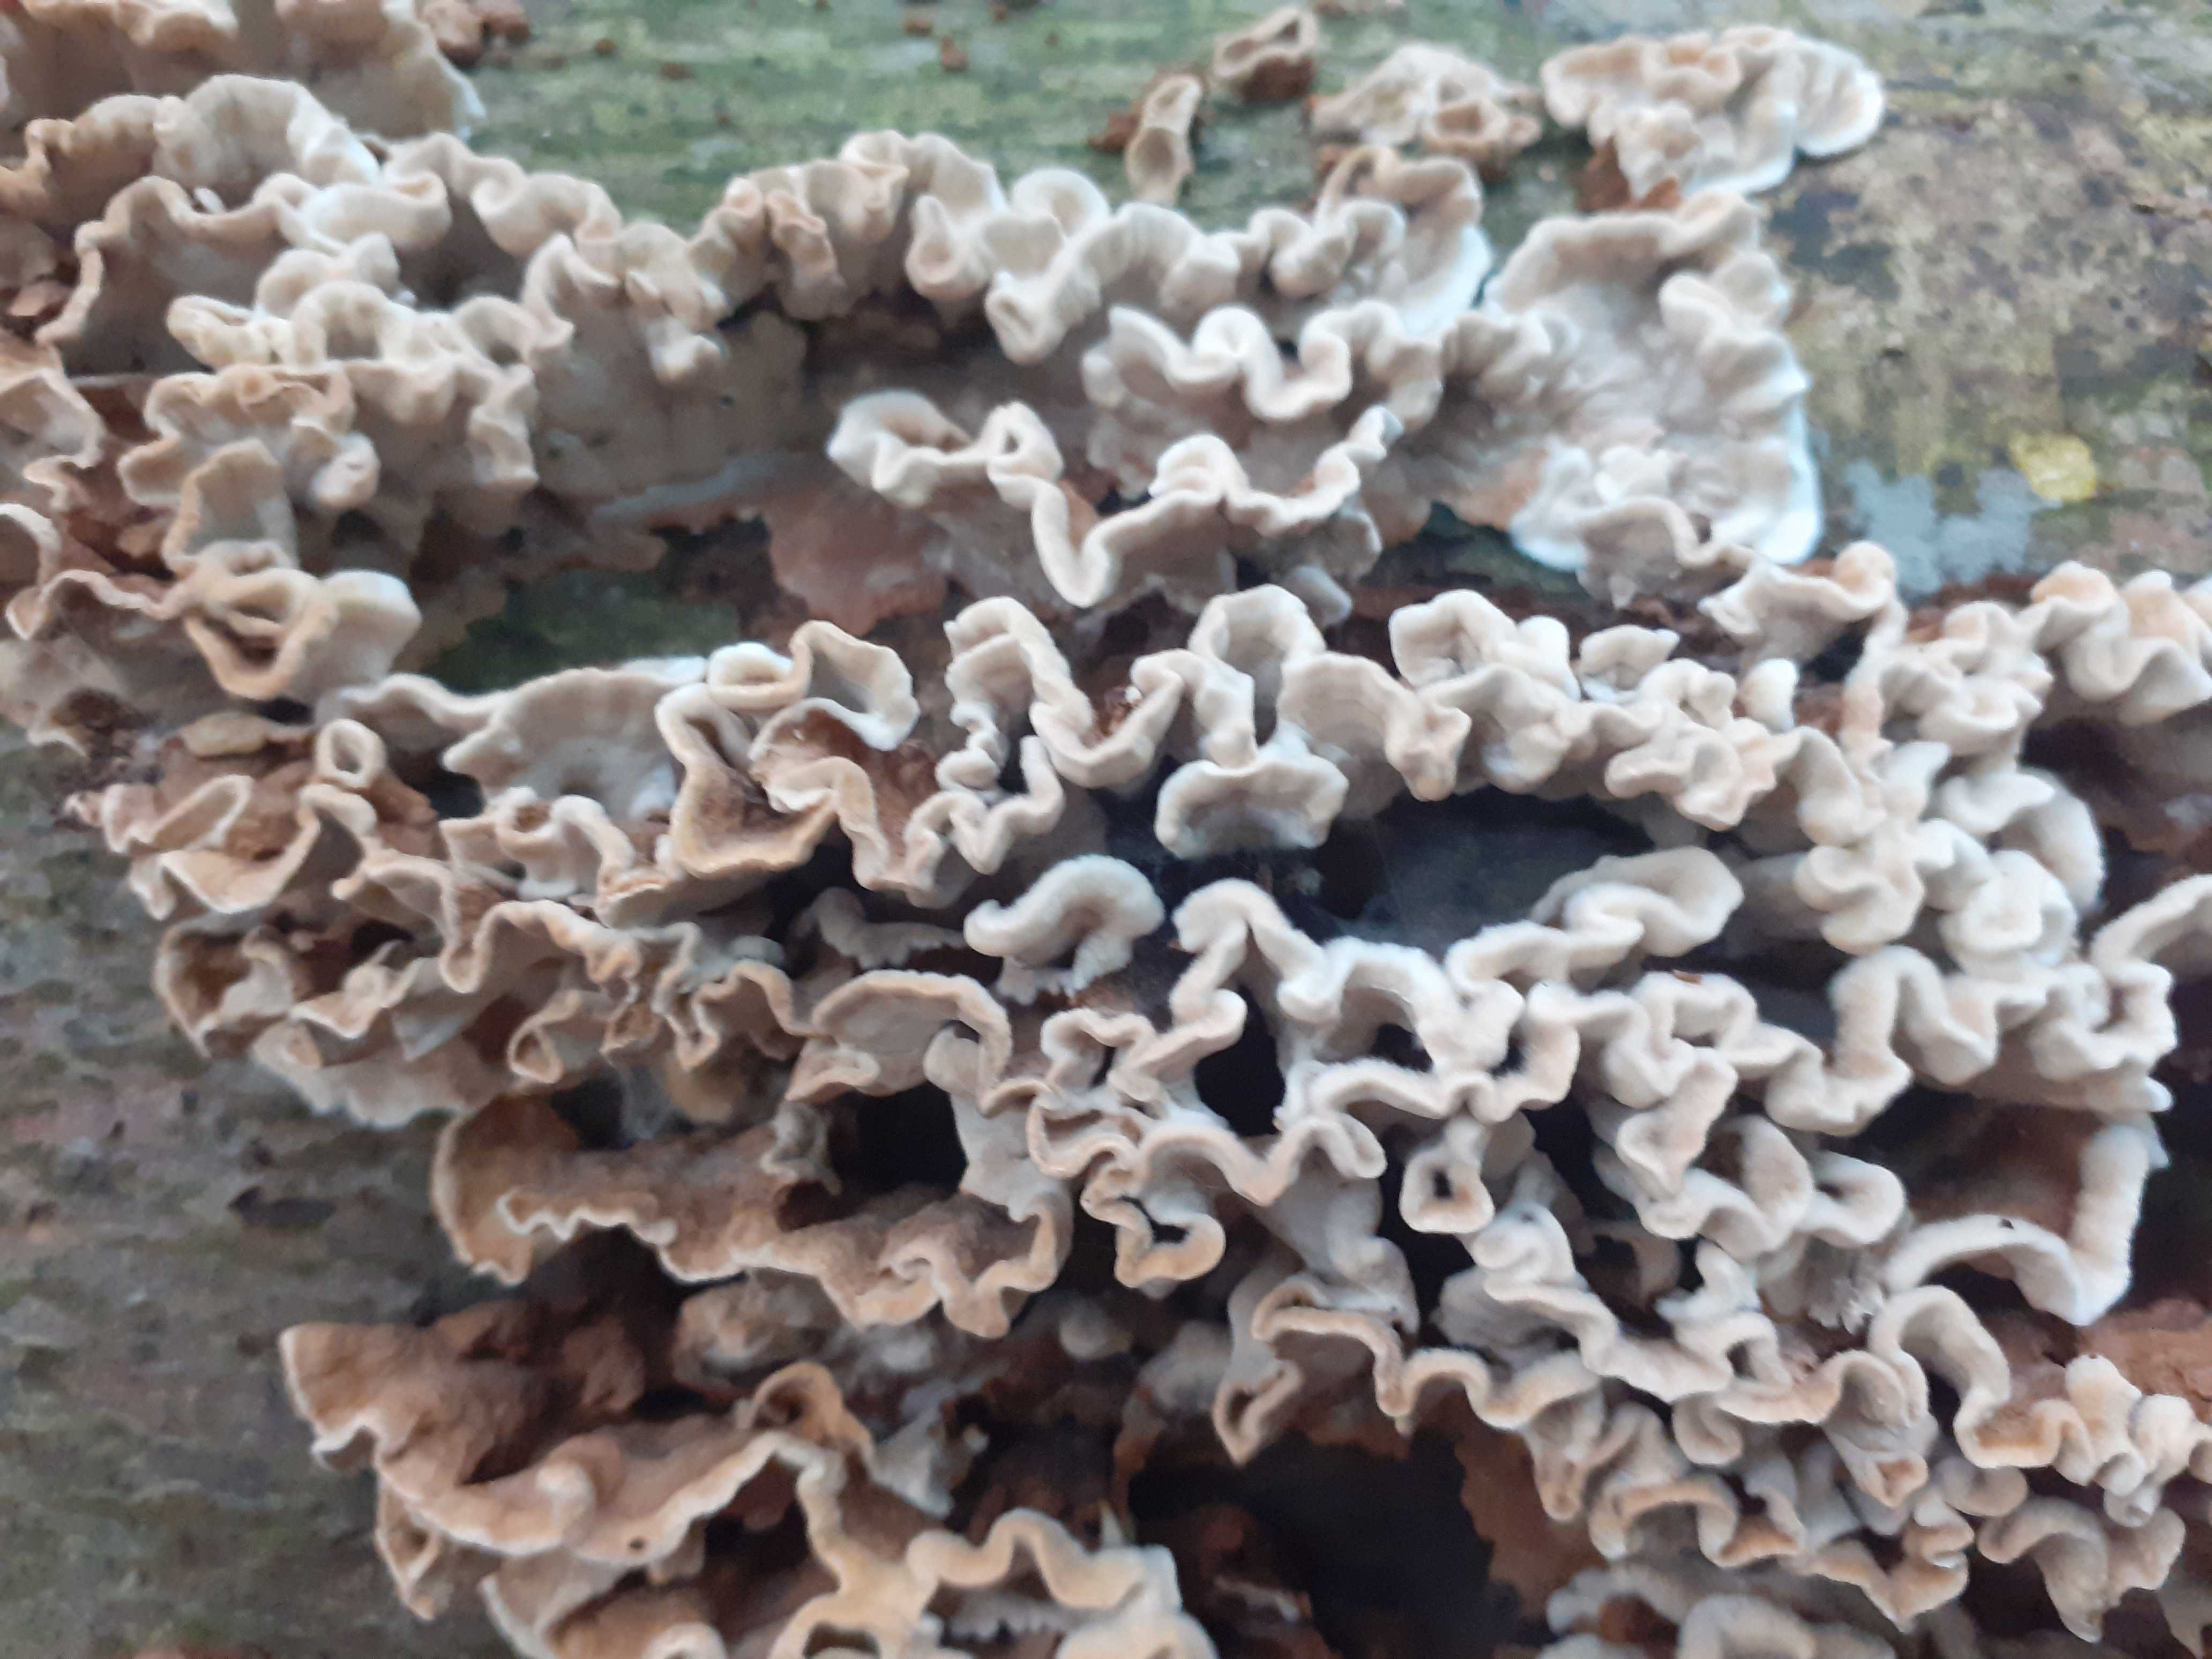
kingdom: Fungi
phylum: Basidiomycota
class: Agaricomycetes
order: Russulales
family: Hericiaceae
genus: Laxitextum
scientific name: Laxitextum bicolor
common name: tvefarvet filtskind
